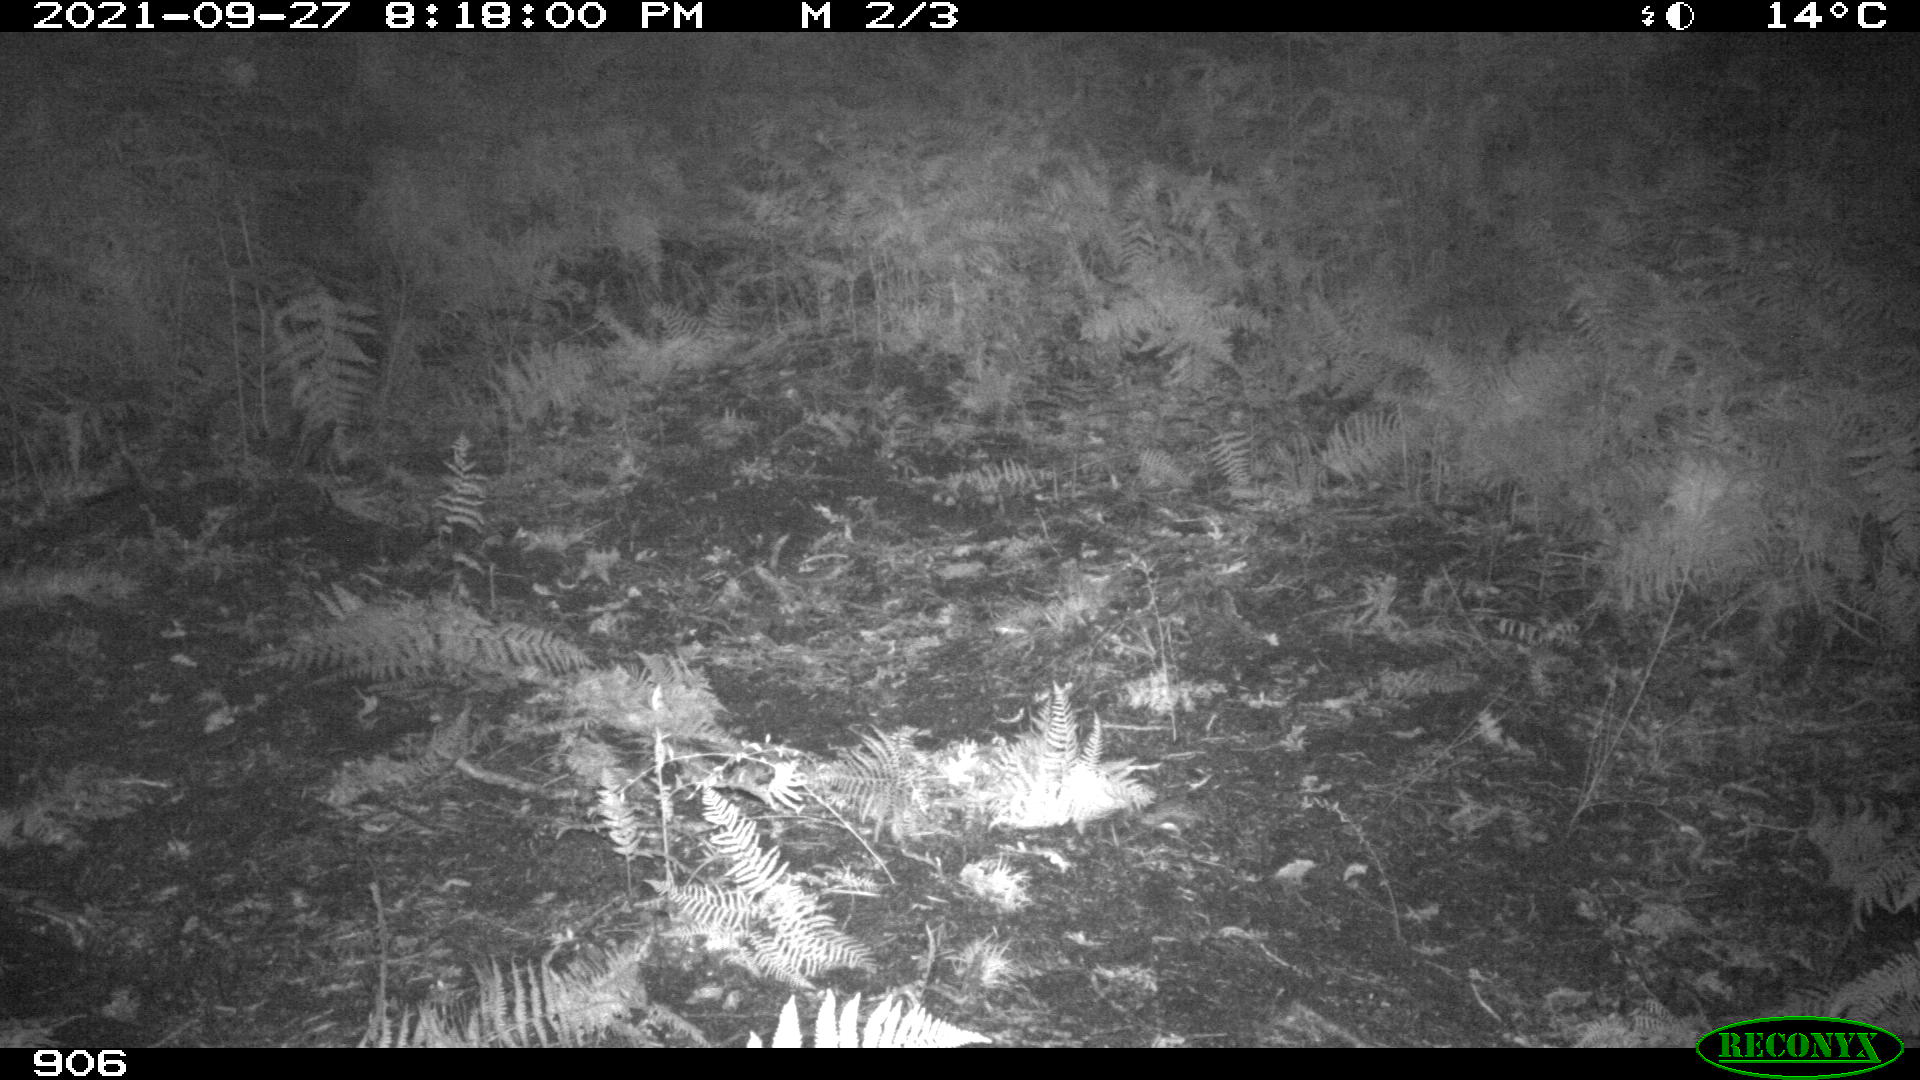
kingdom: Animalia
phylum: Chordata
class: Mammalia
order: Artiodactyla
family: Cervidae
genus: Capreolus
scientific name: Capreolus capreolus
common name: Western roe deer
